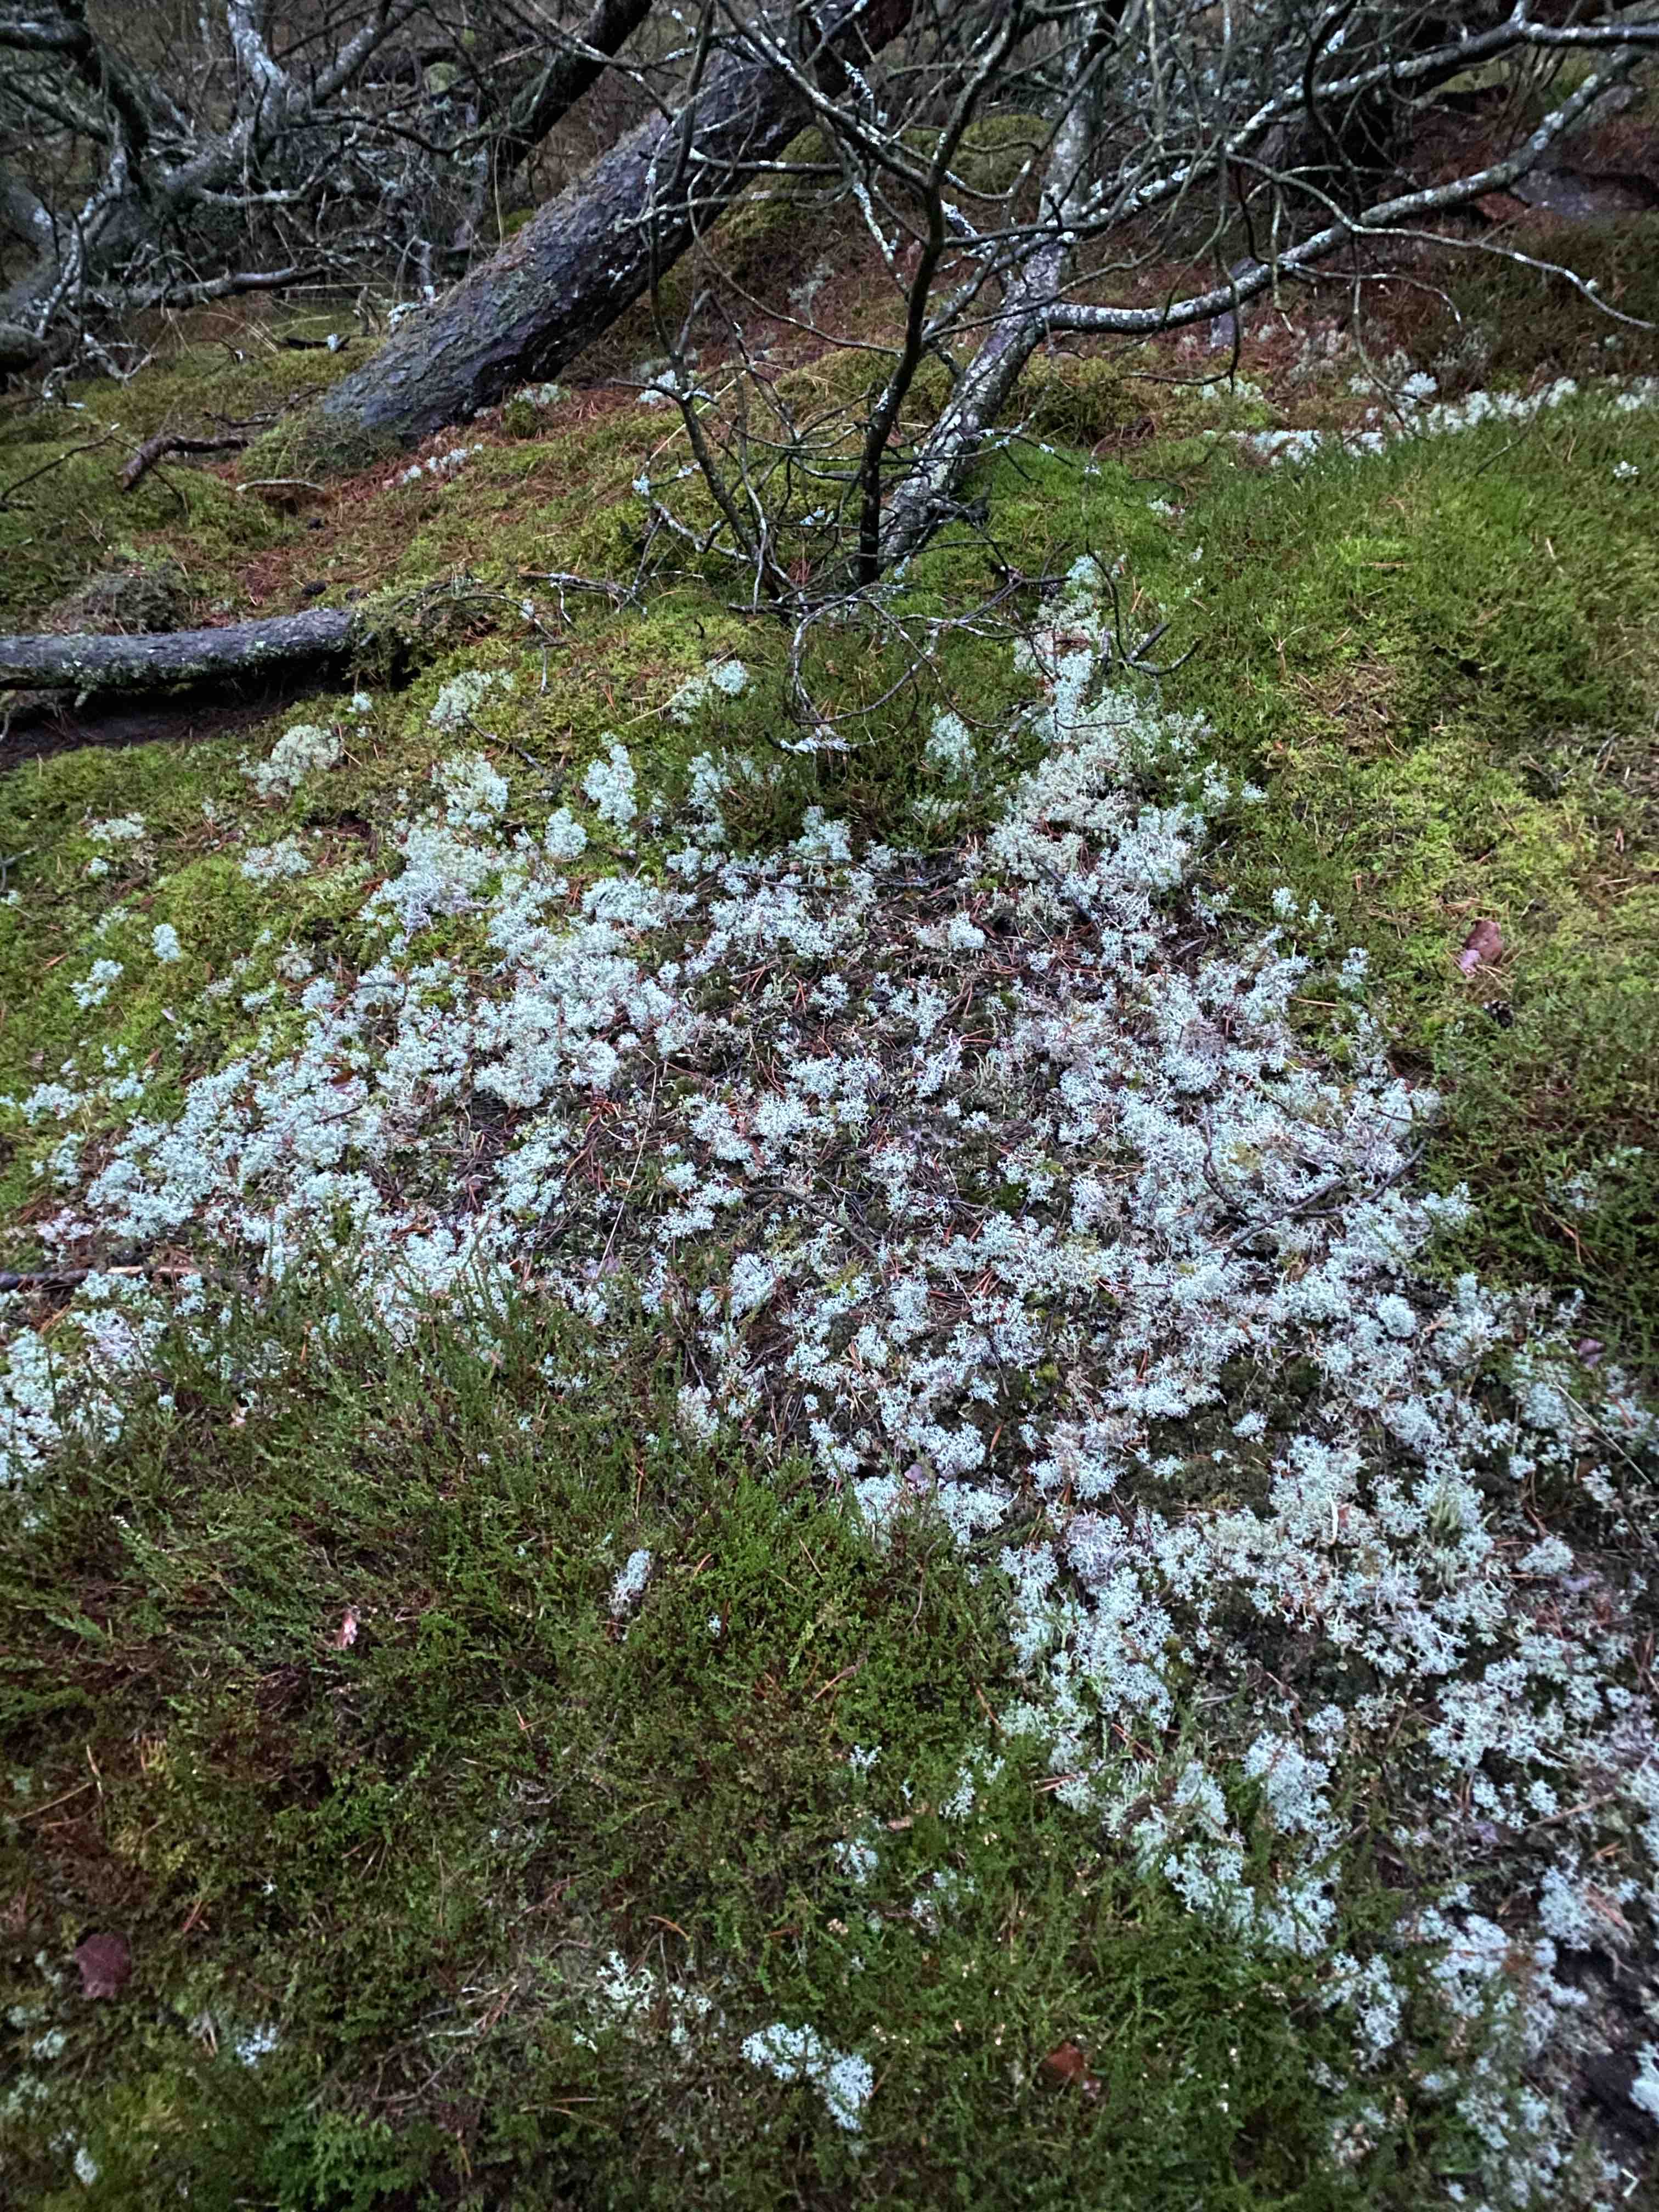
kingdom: Fungi
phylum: Ascomycota
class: Lecanoromycetes
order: Lecanorales
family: Cladoniaceae
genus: Cladonia
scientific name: Cladonia portentosa
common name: hede-rensdyrlav
